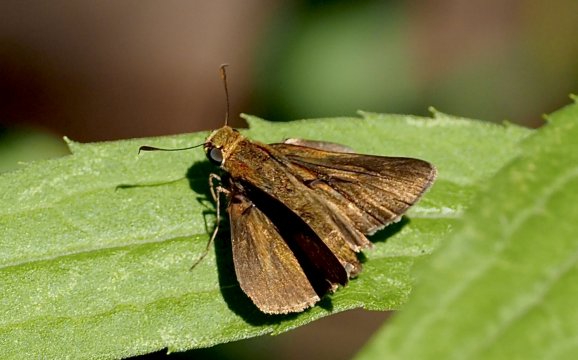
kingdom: Animalia
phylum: Arthropoda
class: Insecta
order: Lepidoptera
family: Hesperiidae
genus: Euphyes
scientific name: Euphyes vestris
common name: Dun Skipper
